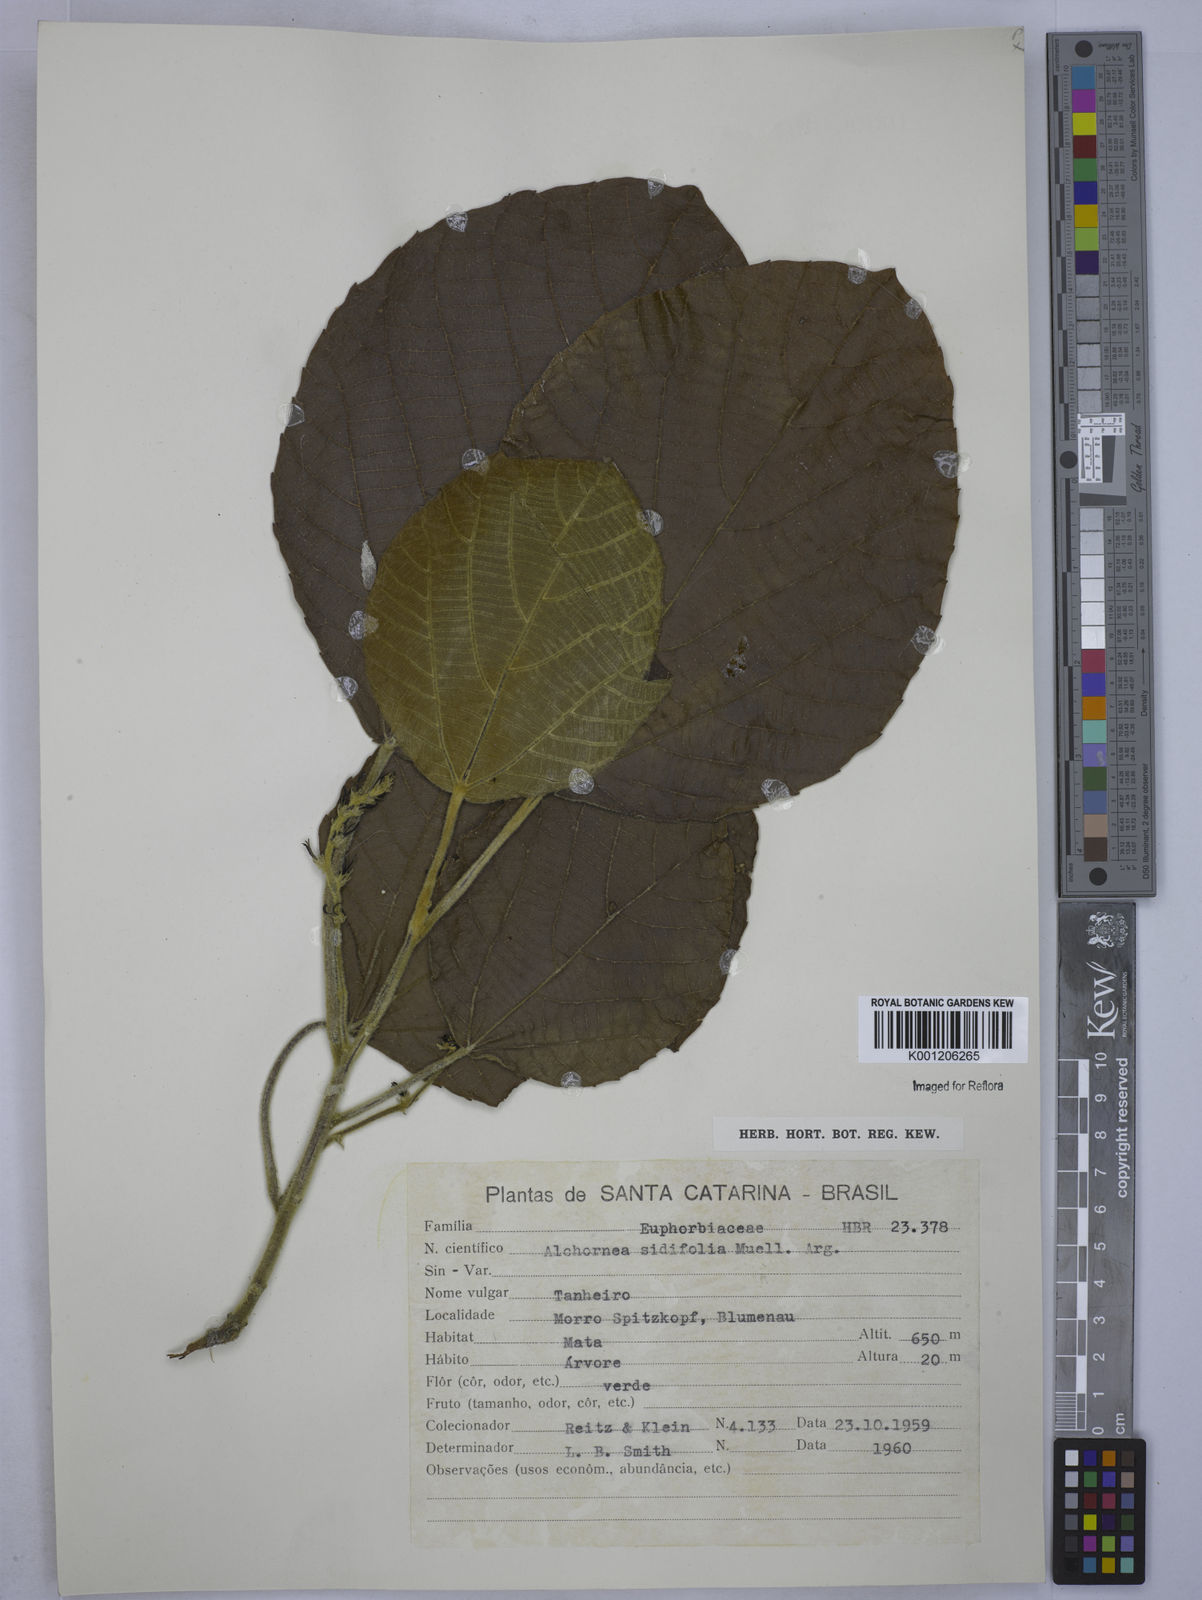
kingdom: Plantae
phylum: Tracheophyta
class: Magnoliopsida
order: Malpighiales
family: Euphorbiaceae
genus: Alchornea
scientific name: Alchornea
